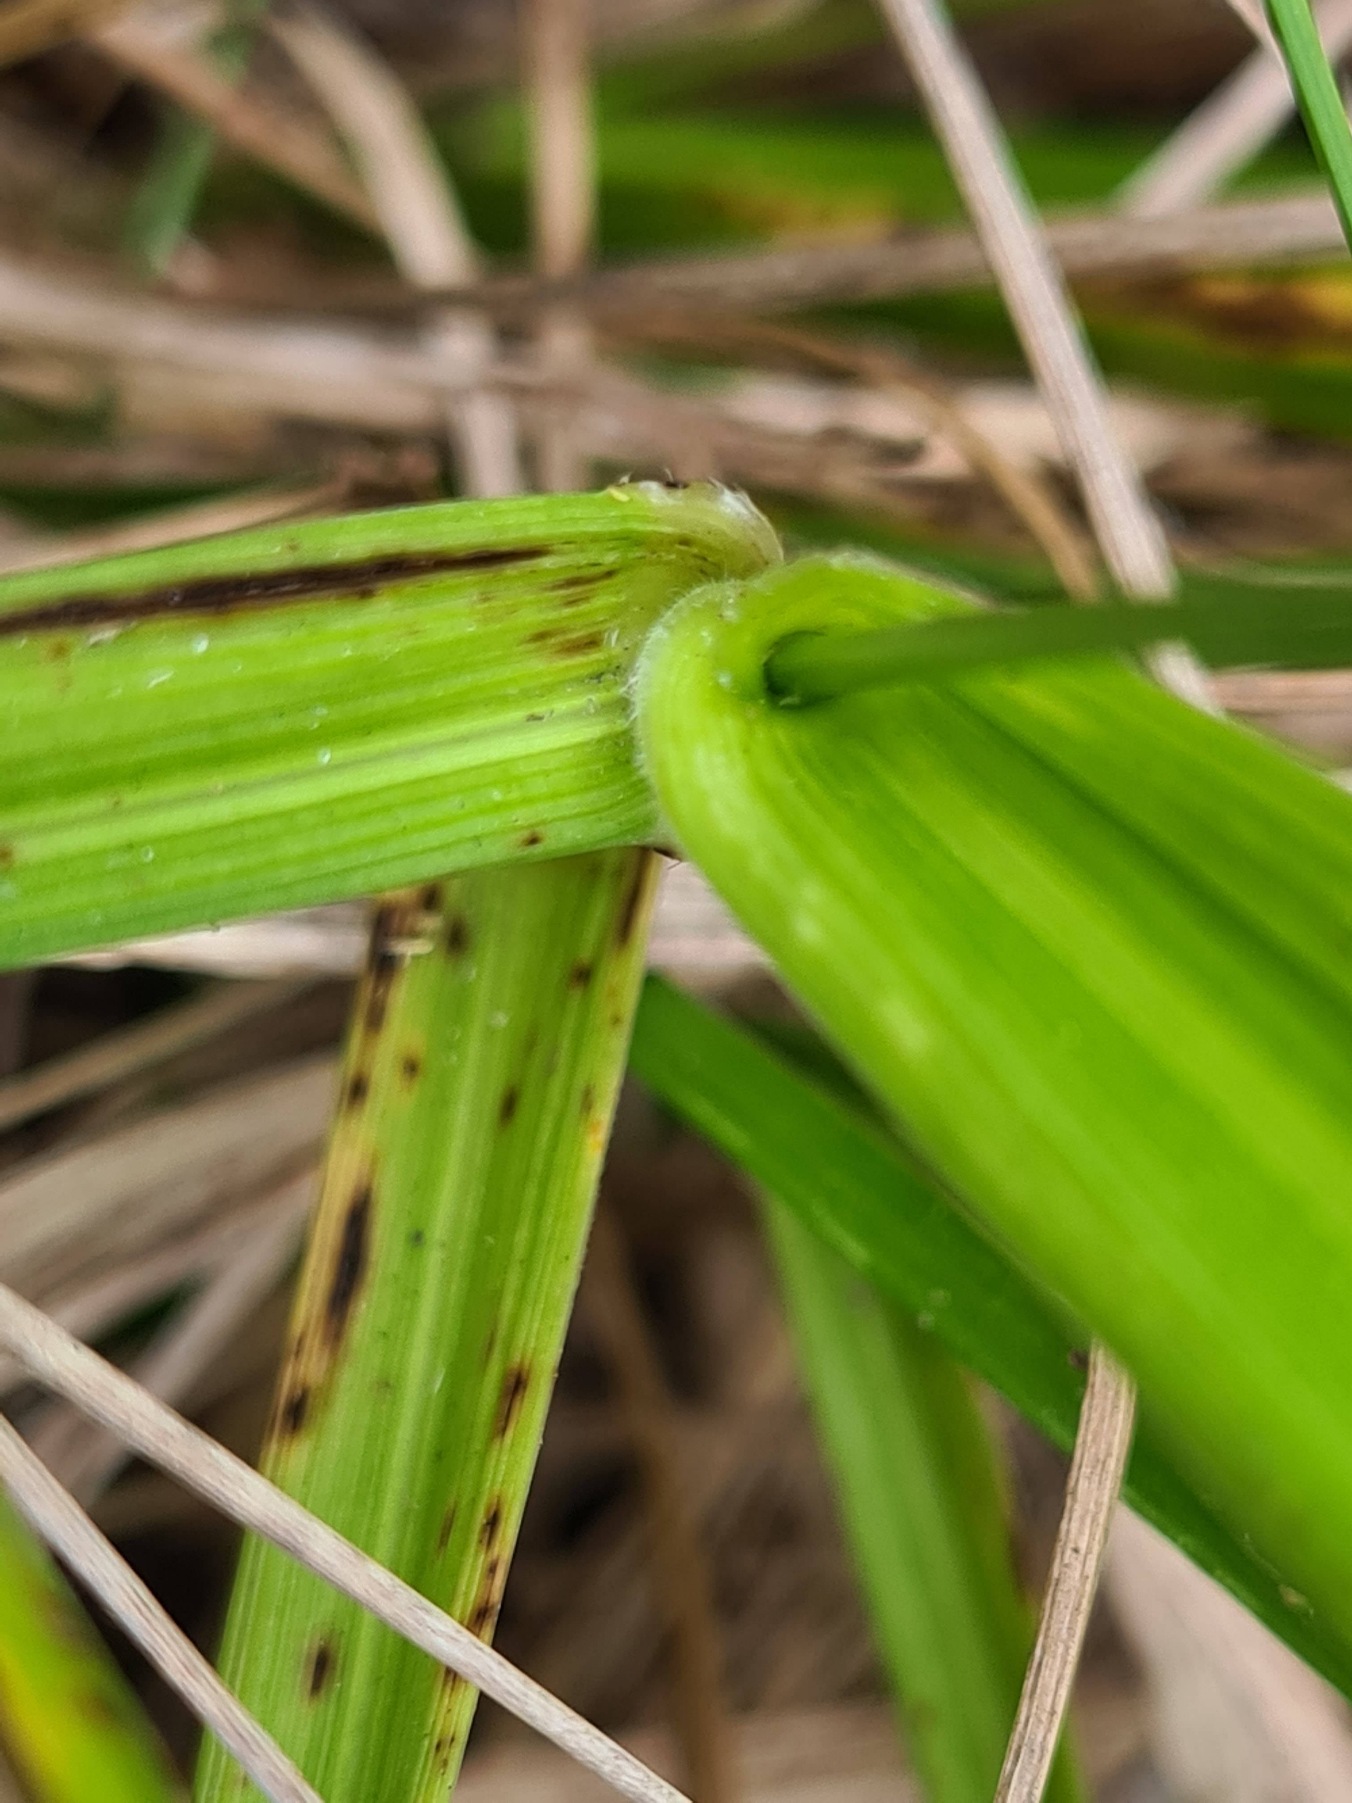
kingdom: Plantae
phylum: Tracheophyta
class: Liliopsida
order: Poales
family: Poaceae
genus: Lolium
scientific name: Lolium arundinaceum
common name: Strand-svingel
